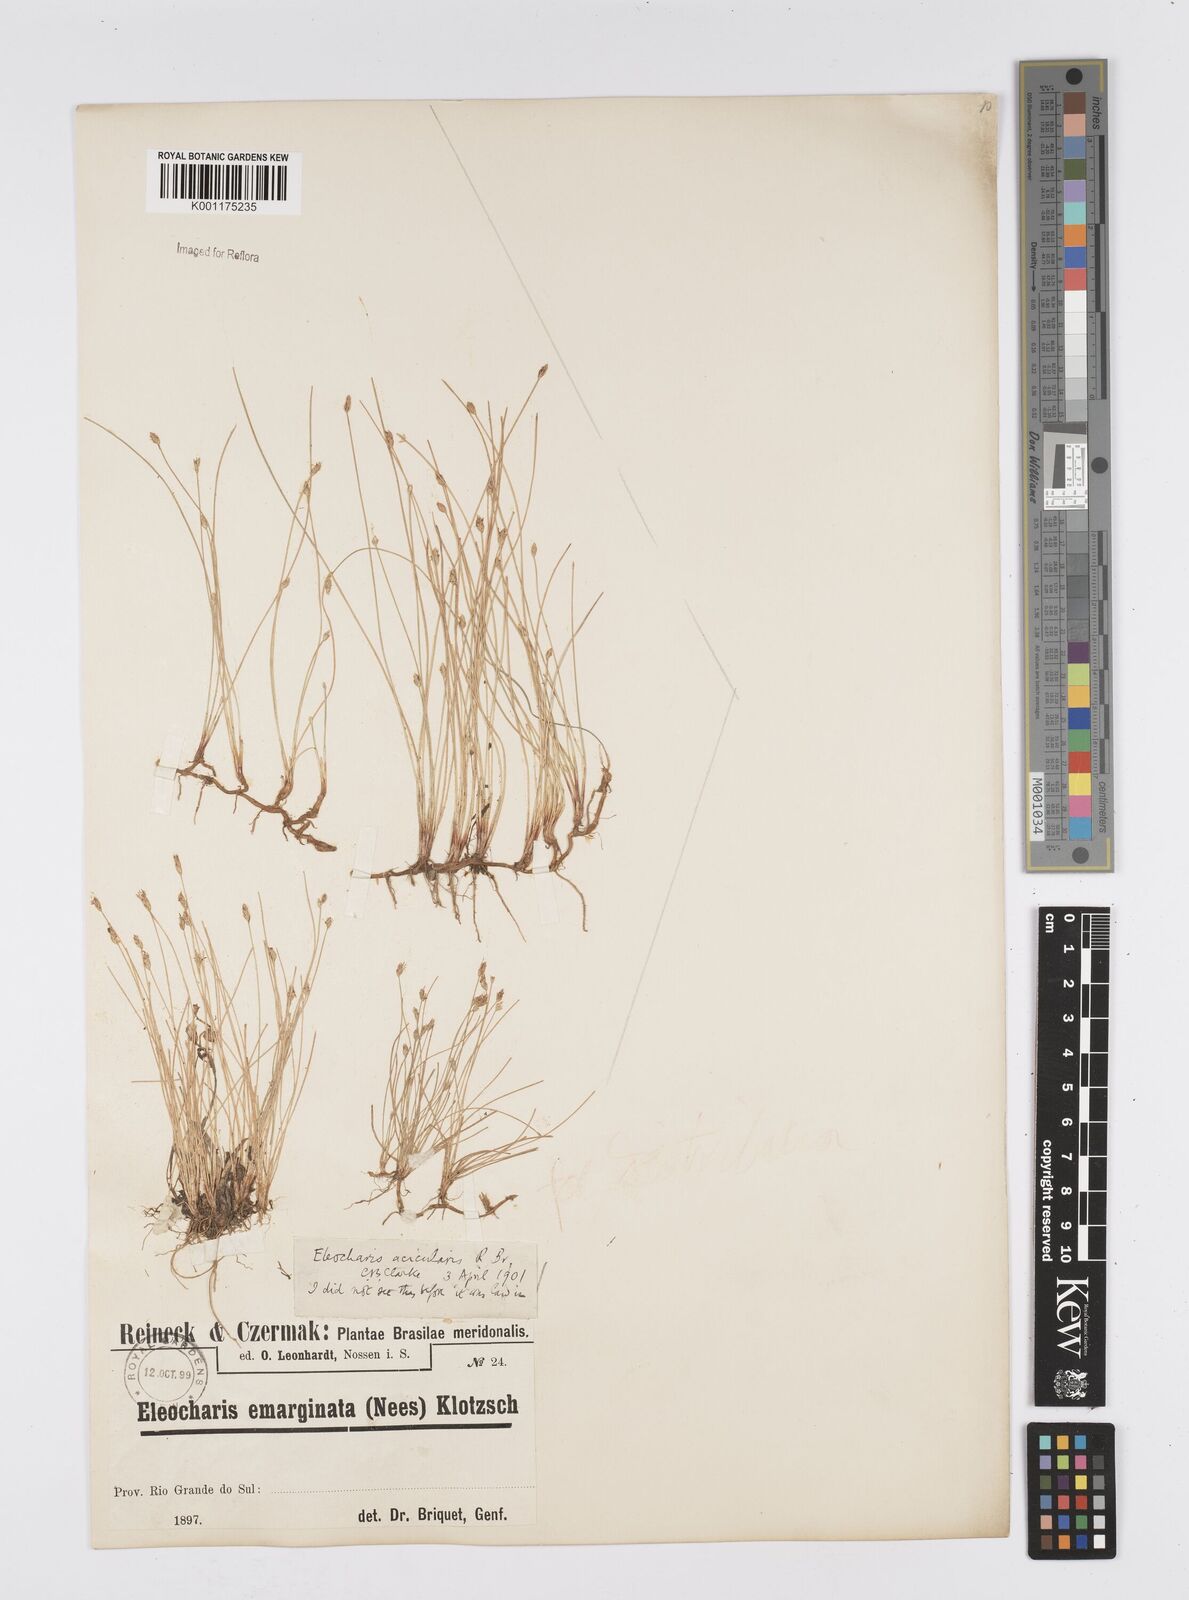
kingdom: Plantae
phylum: Tracheophyta
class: Liliopsida
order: Poales
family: Cyperaceae
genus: Eleocharis
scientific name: Eleocharis acicularis
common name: Needle spike-rush
